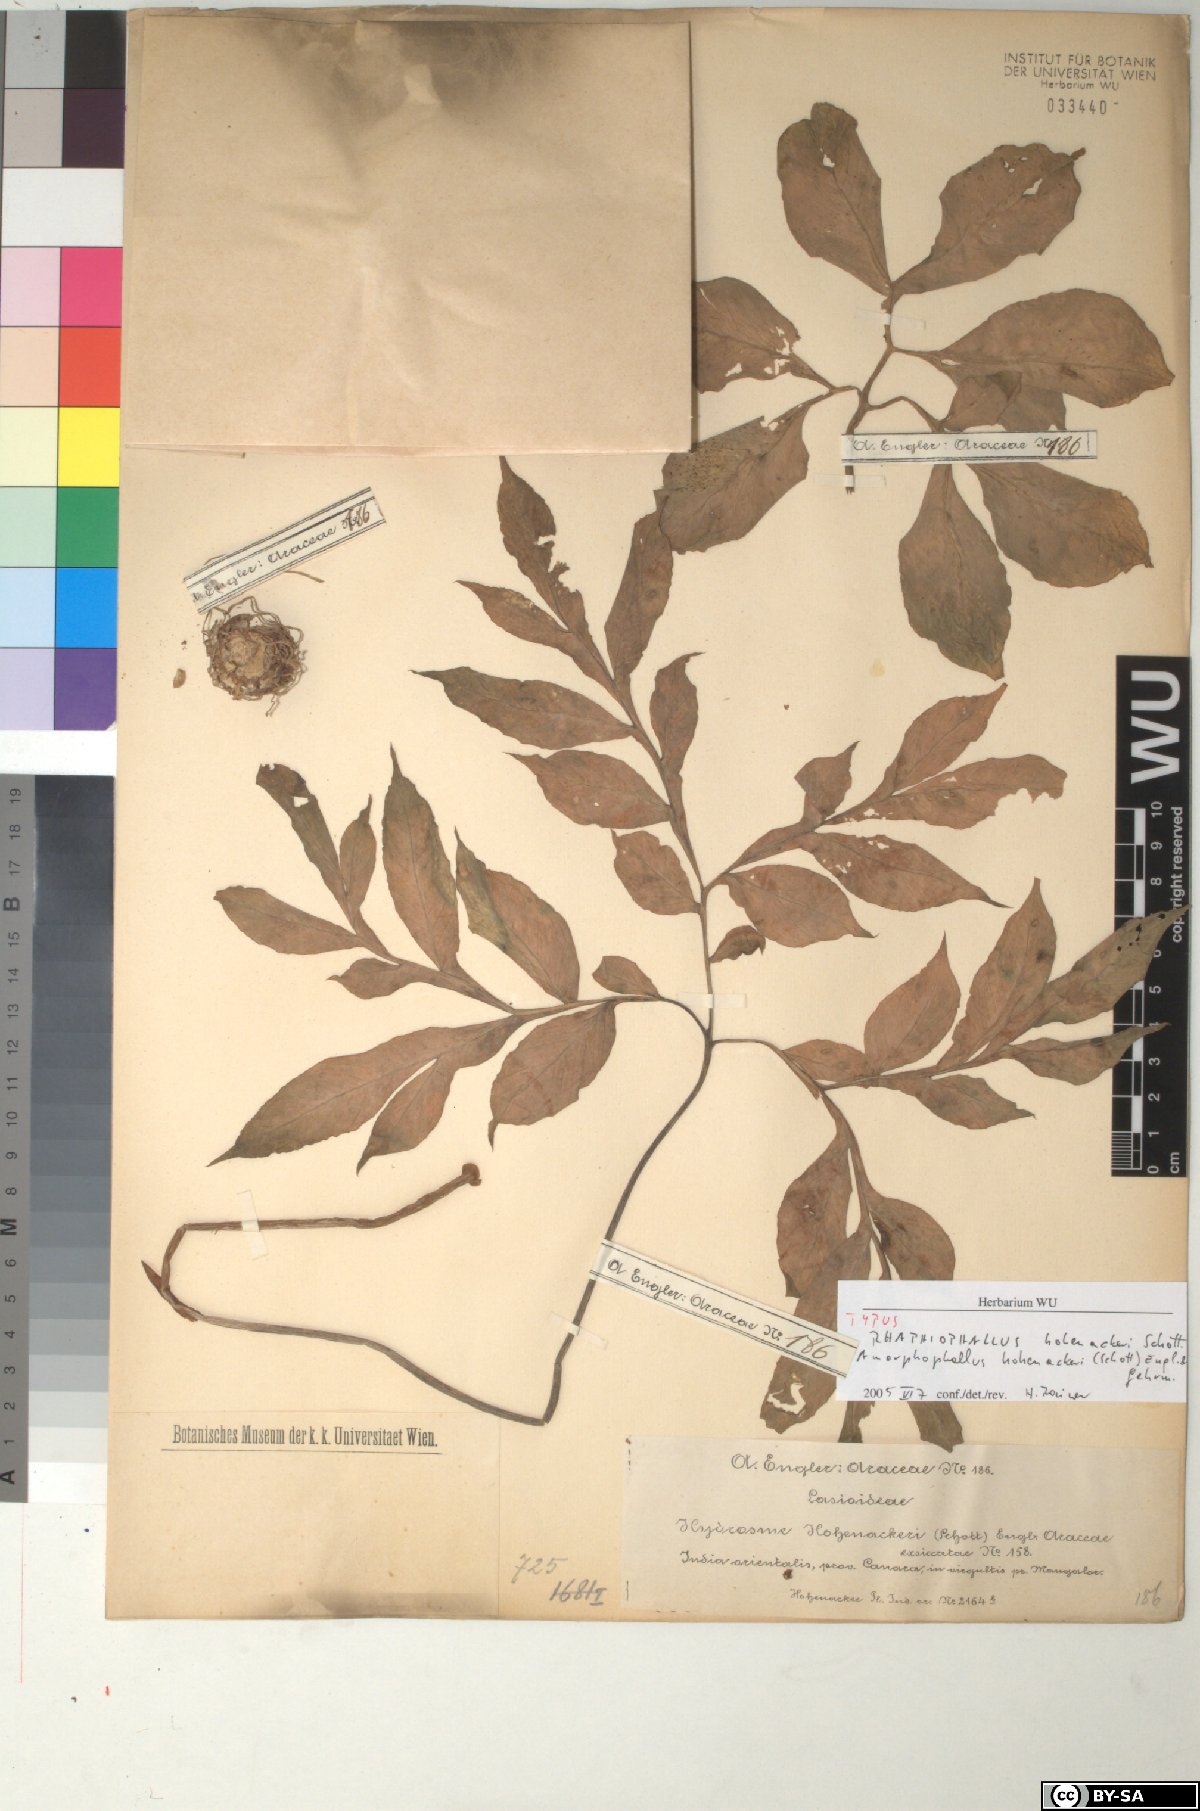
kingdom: Plantae
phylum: Tracheophyta
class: Liliopsida
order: Alismatales
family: Araceae
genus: Amorphophallus
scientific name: Amorphophallus hohenackeri
